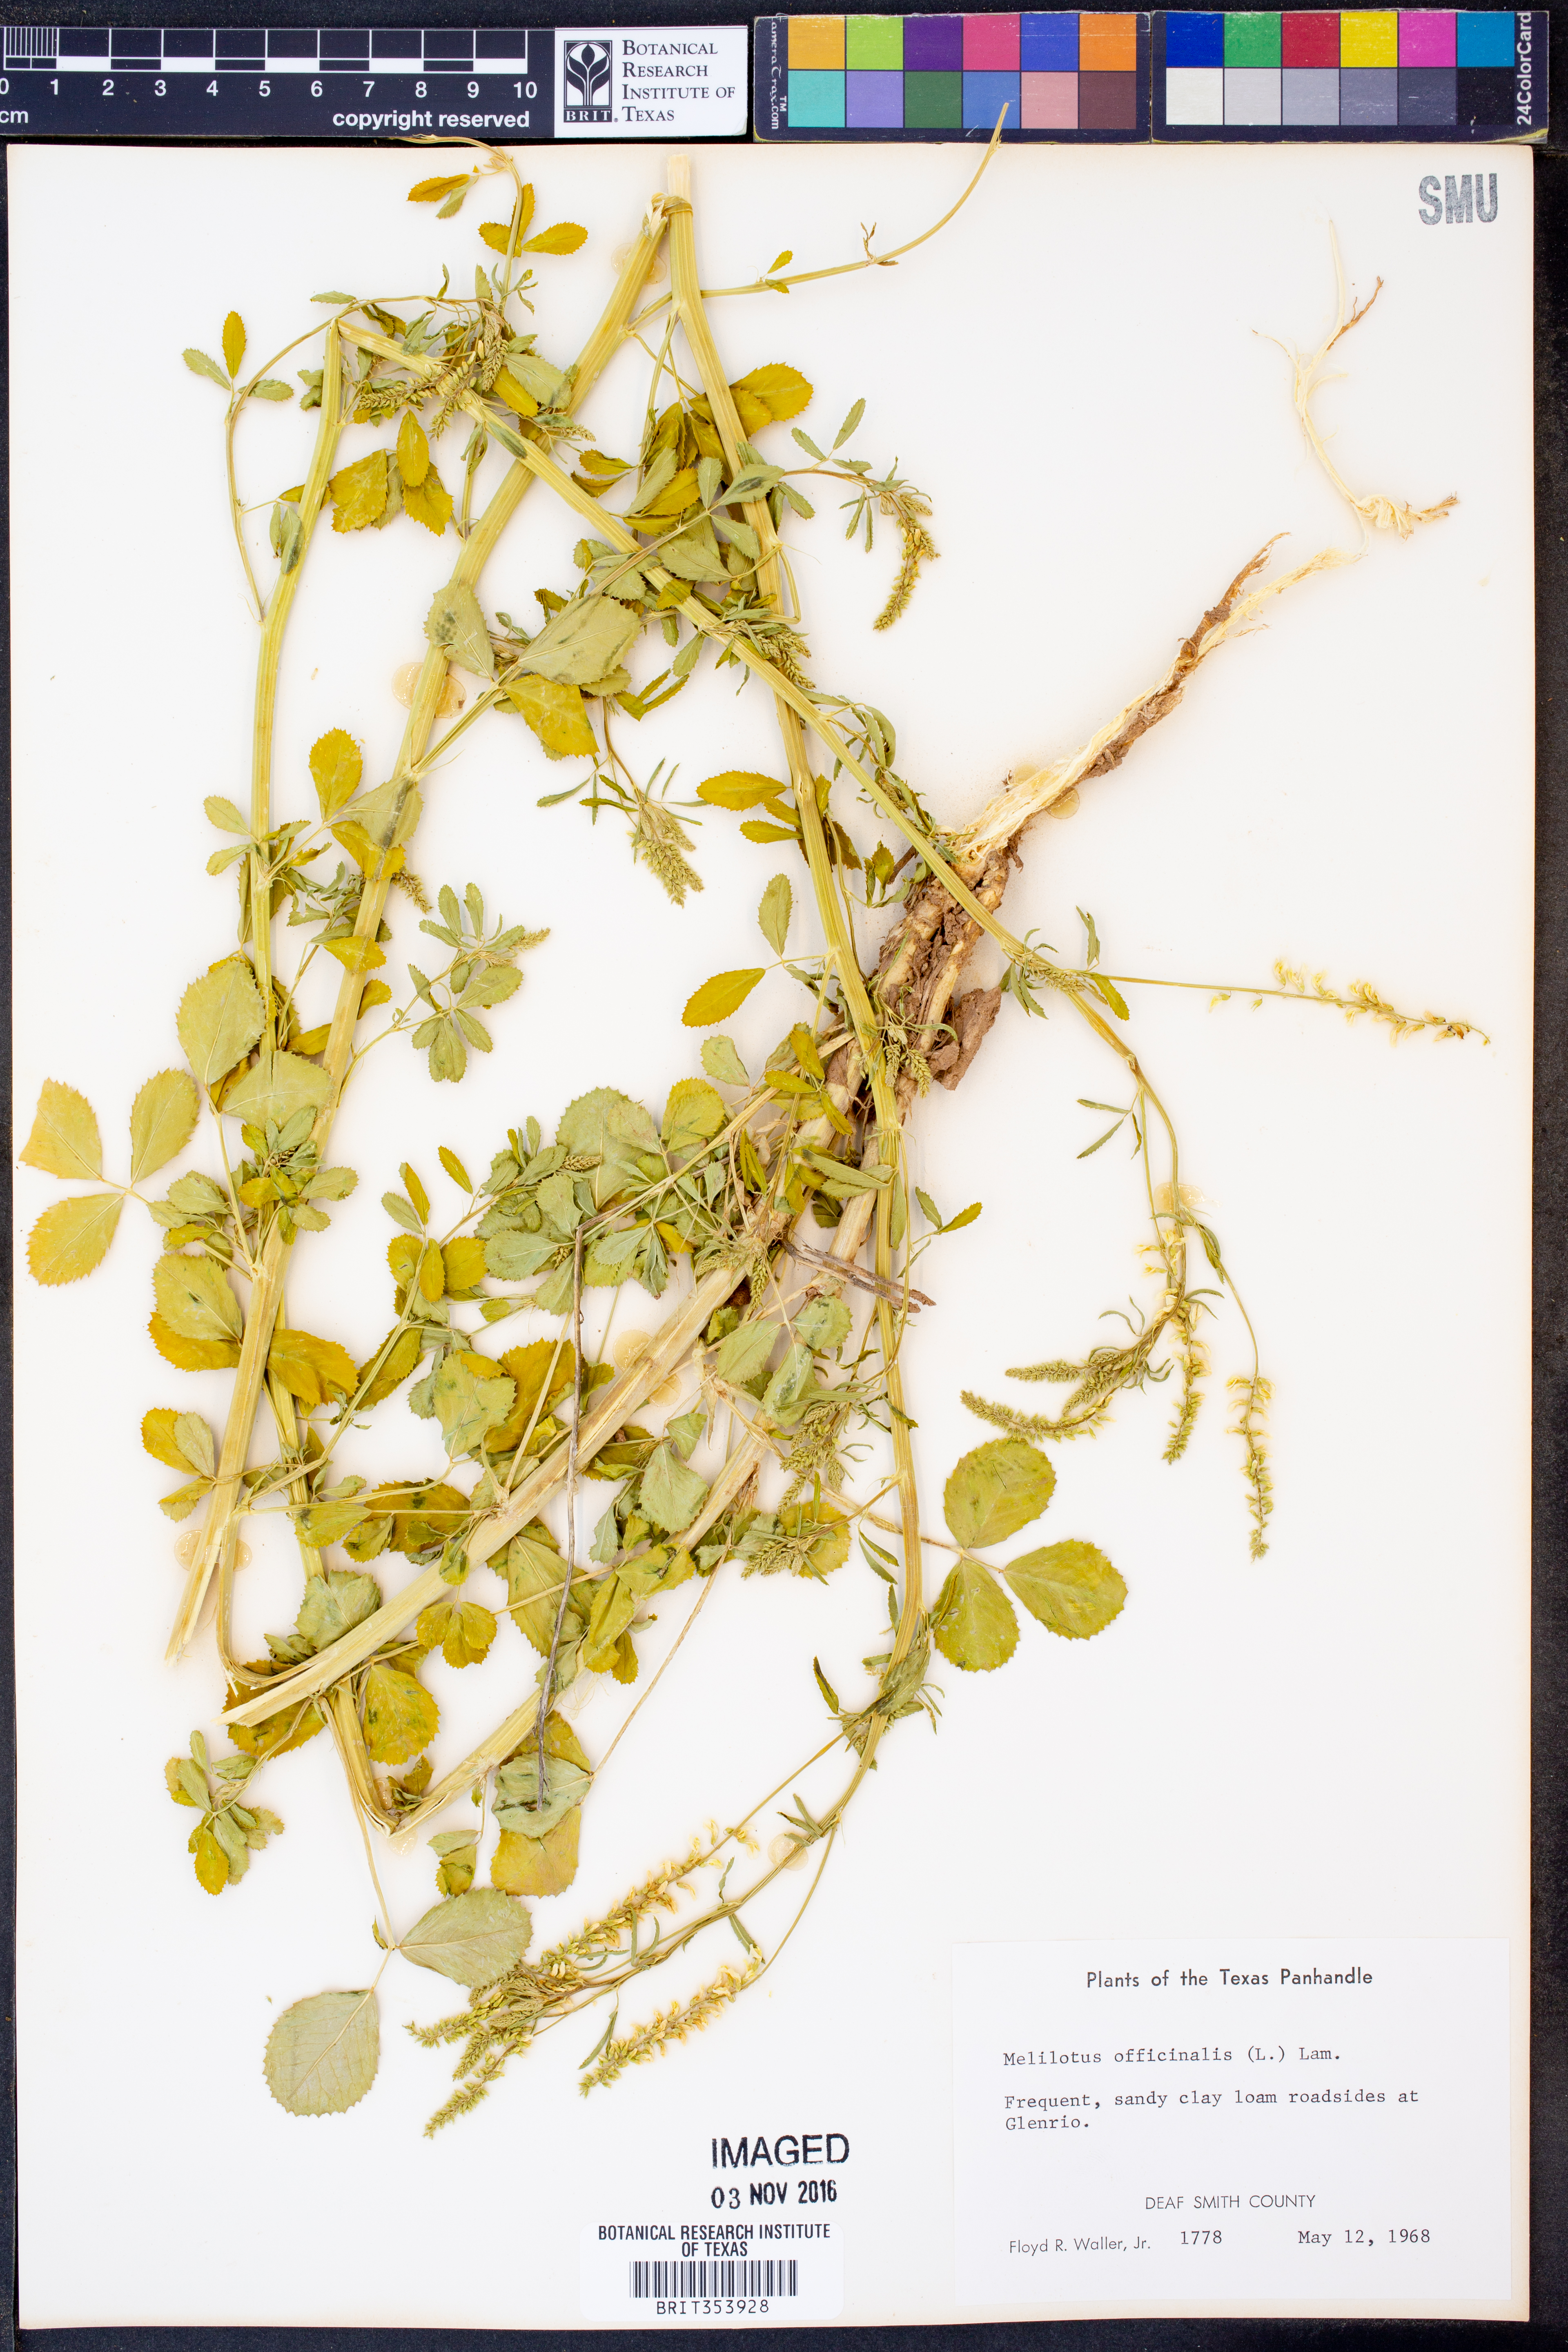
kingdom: Plantae
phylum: Tracheophyta
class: Magnoliopsida
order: Fabales
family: Fabaceae
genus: Melilotus
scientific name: Melilotus officinalis
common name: Sweetclover
